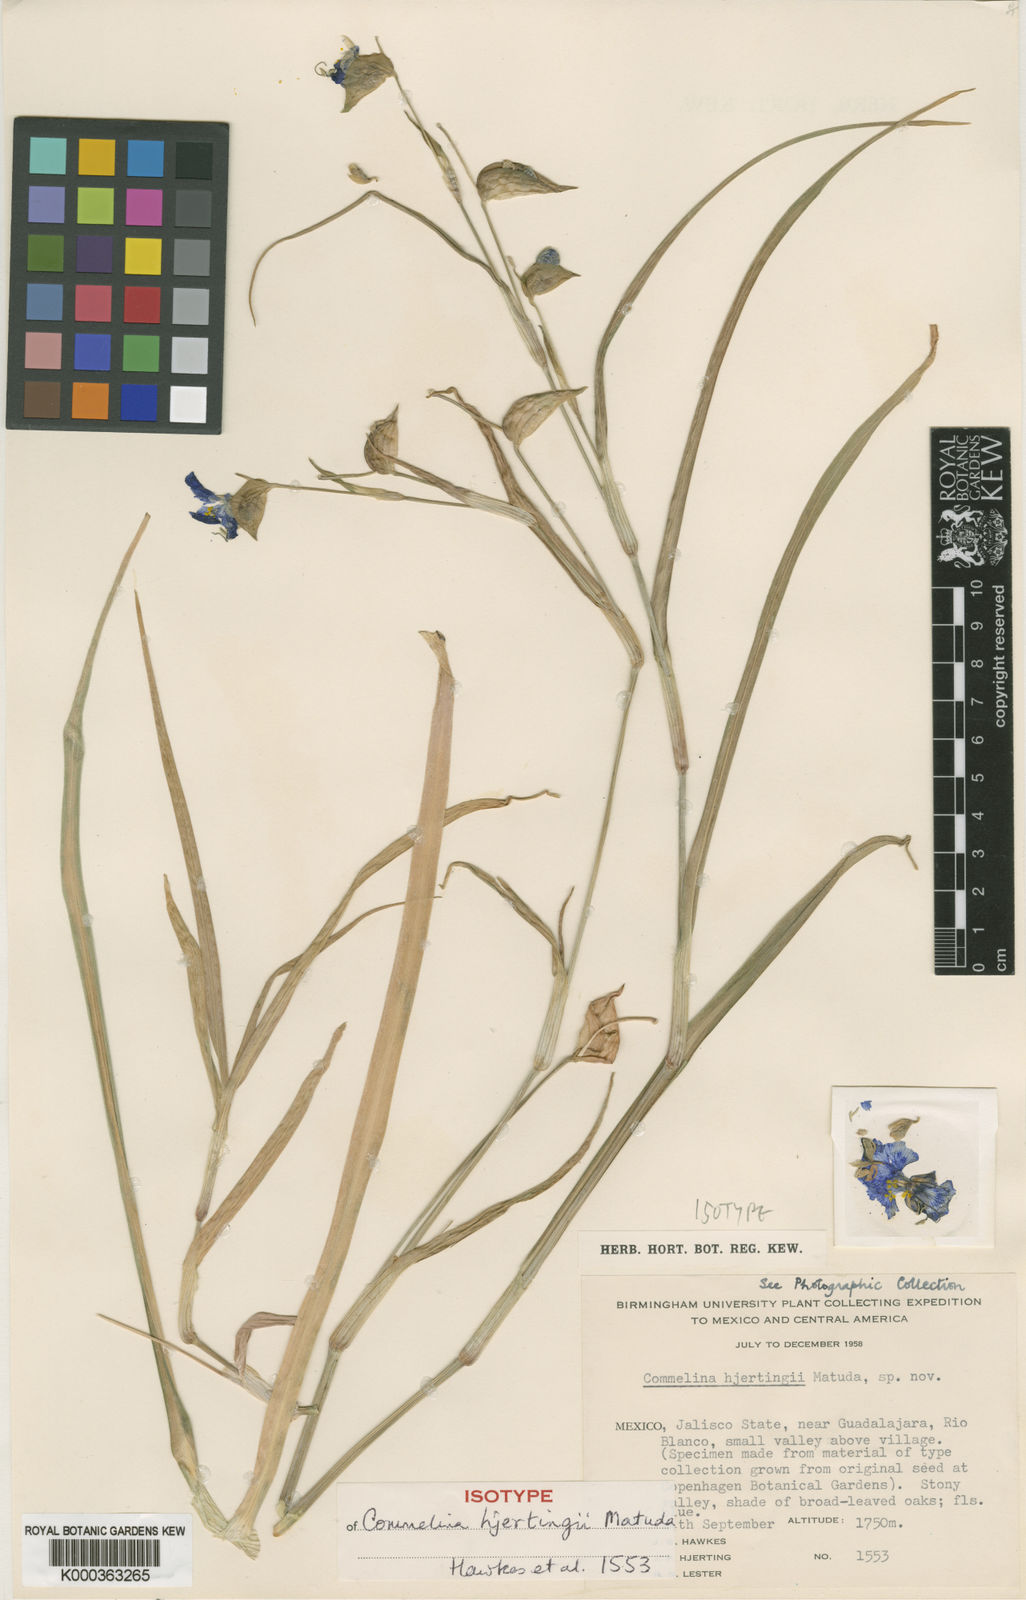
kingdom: Plantae
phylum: Tracheophyta
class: Liliopsida
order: Commelinales
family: Commelinaceae
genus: Commelina
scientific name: Commelina jaliscana
